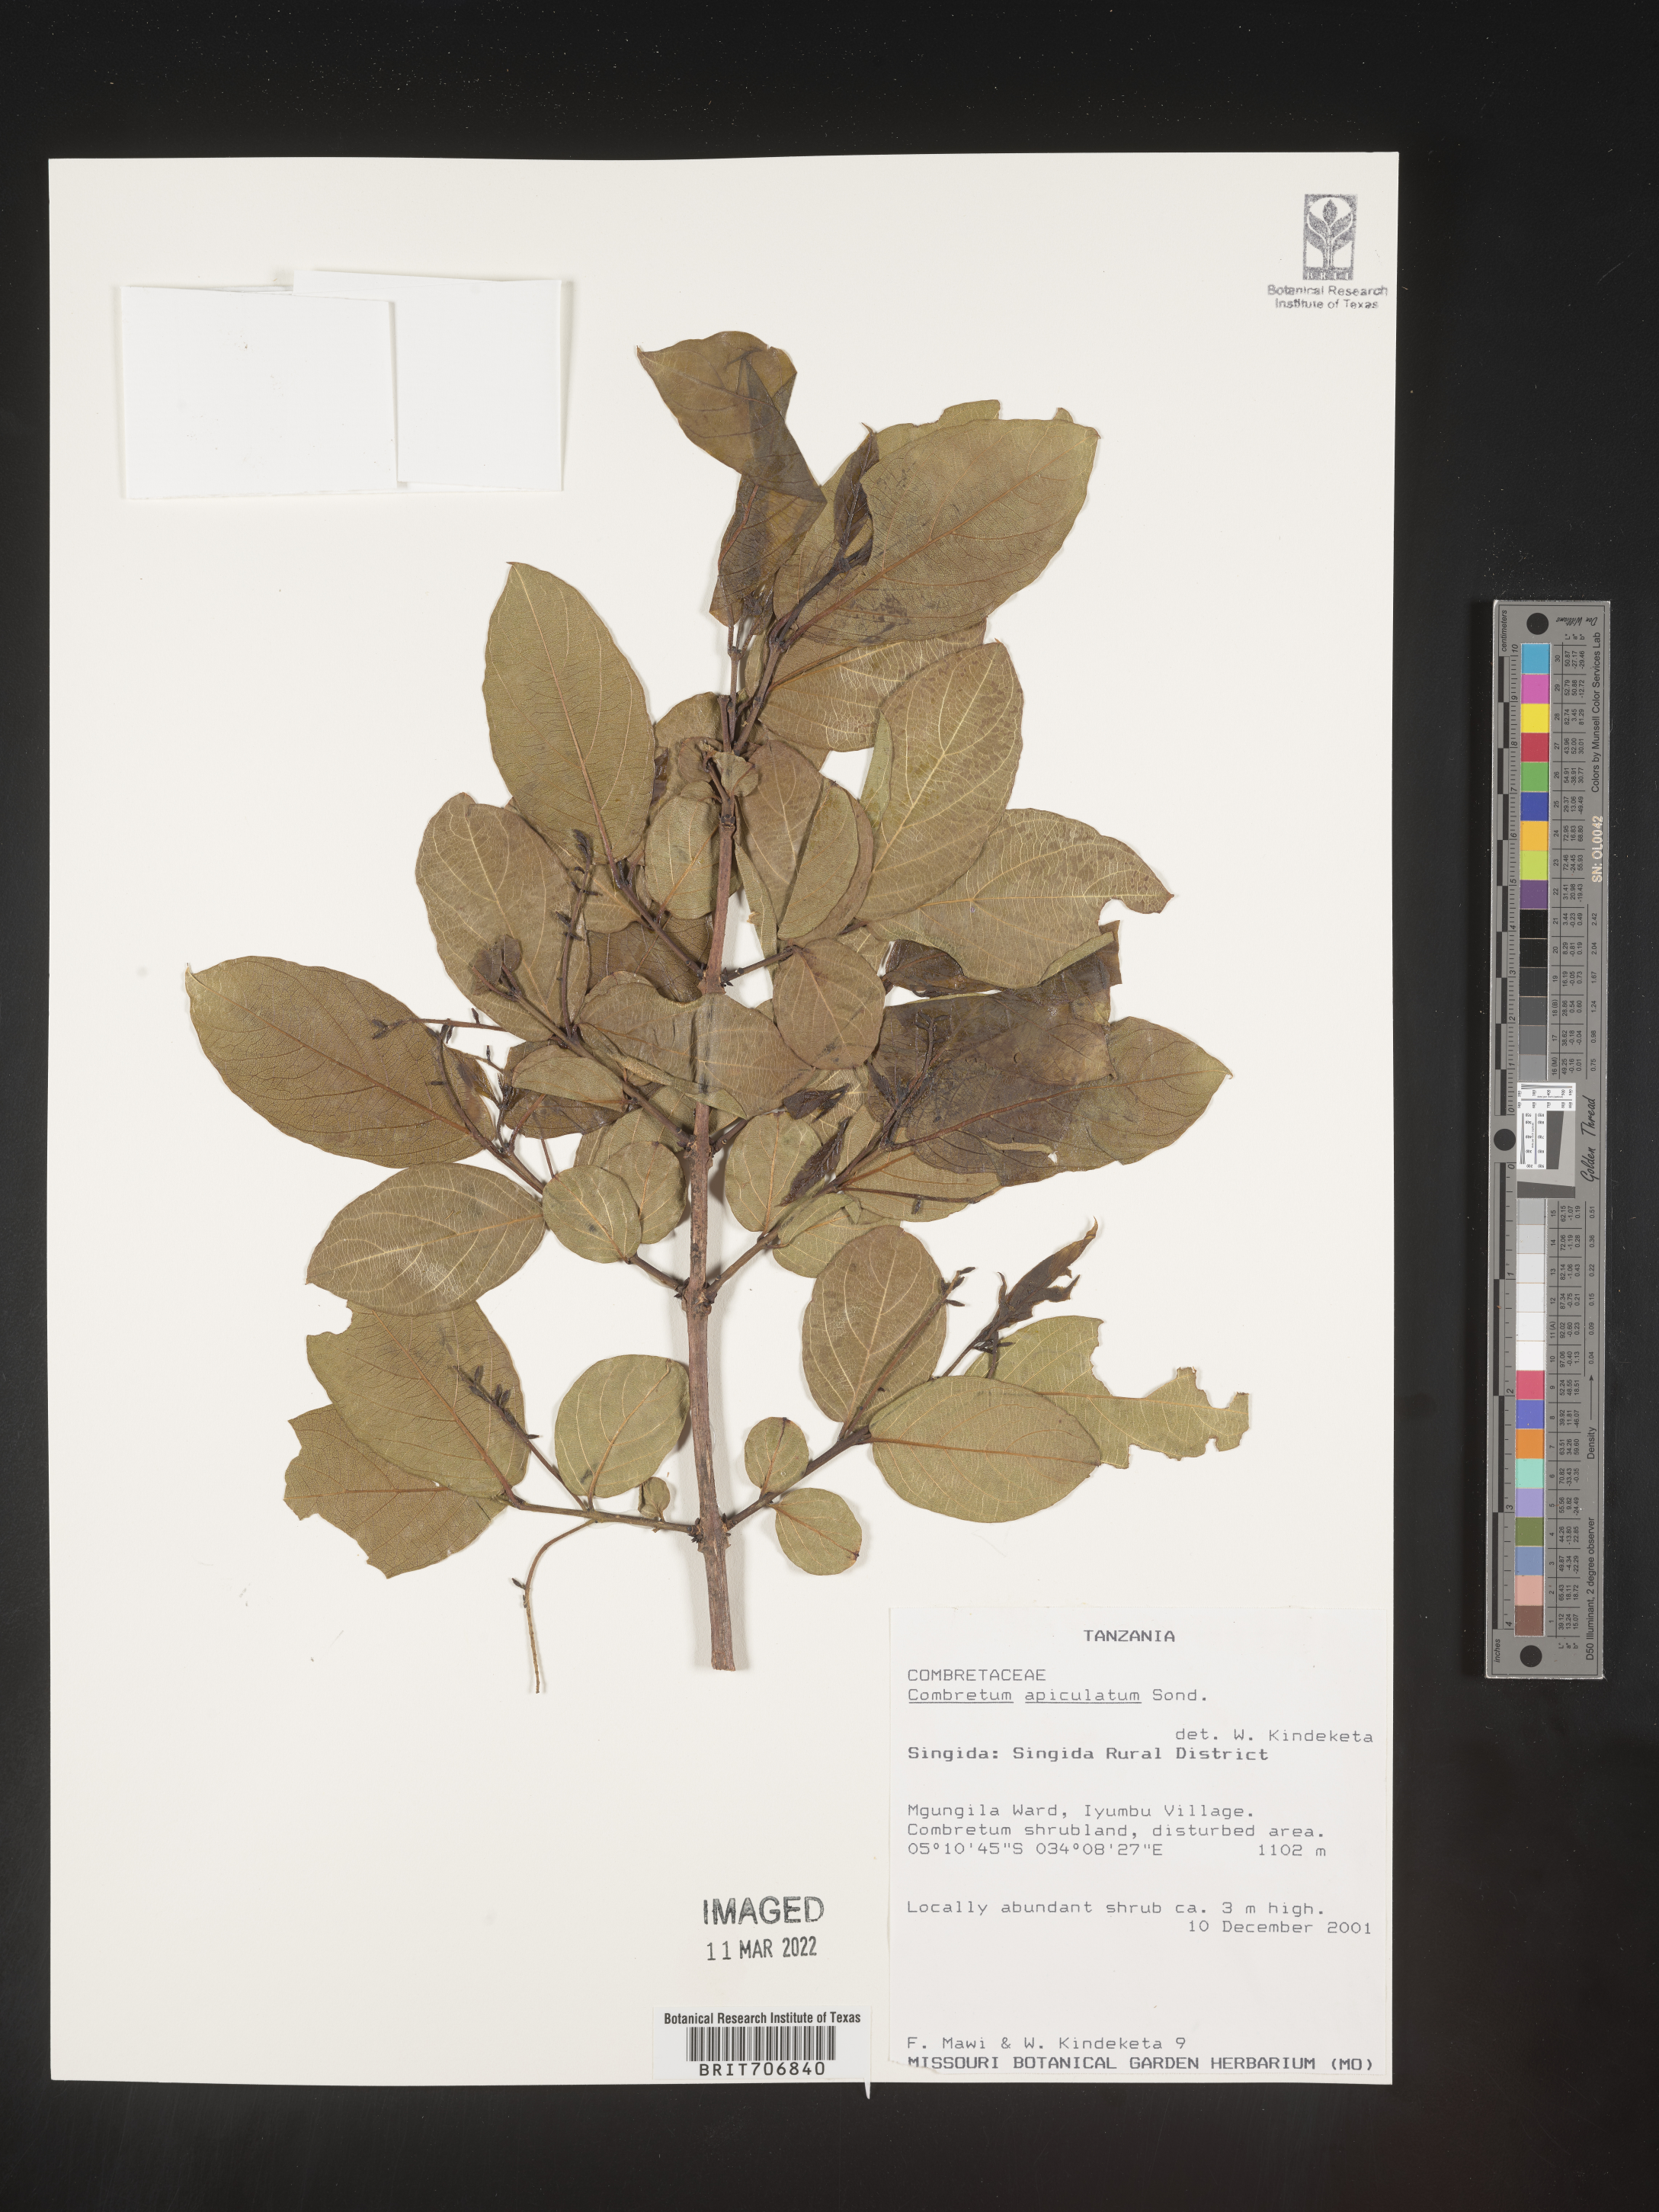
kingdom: Plantae
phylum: Tracheophyta
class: Magnoliopsida
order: Myrtales
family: Combretaceae
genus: Combretum
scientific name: Combretum
